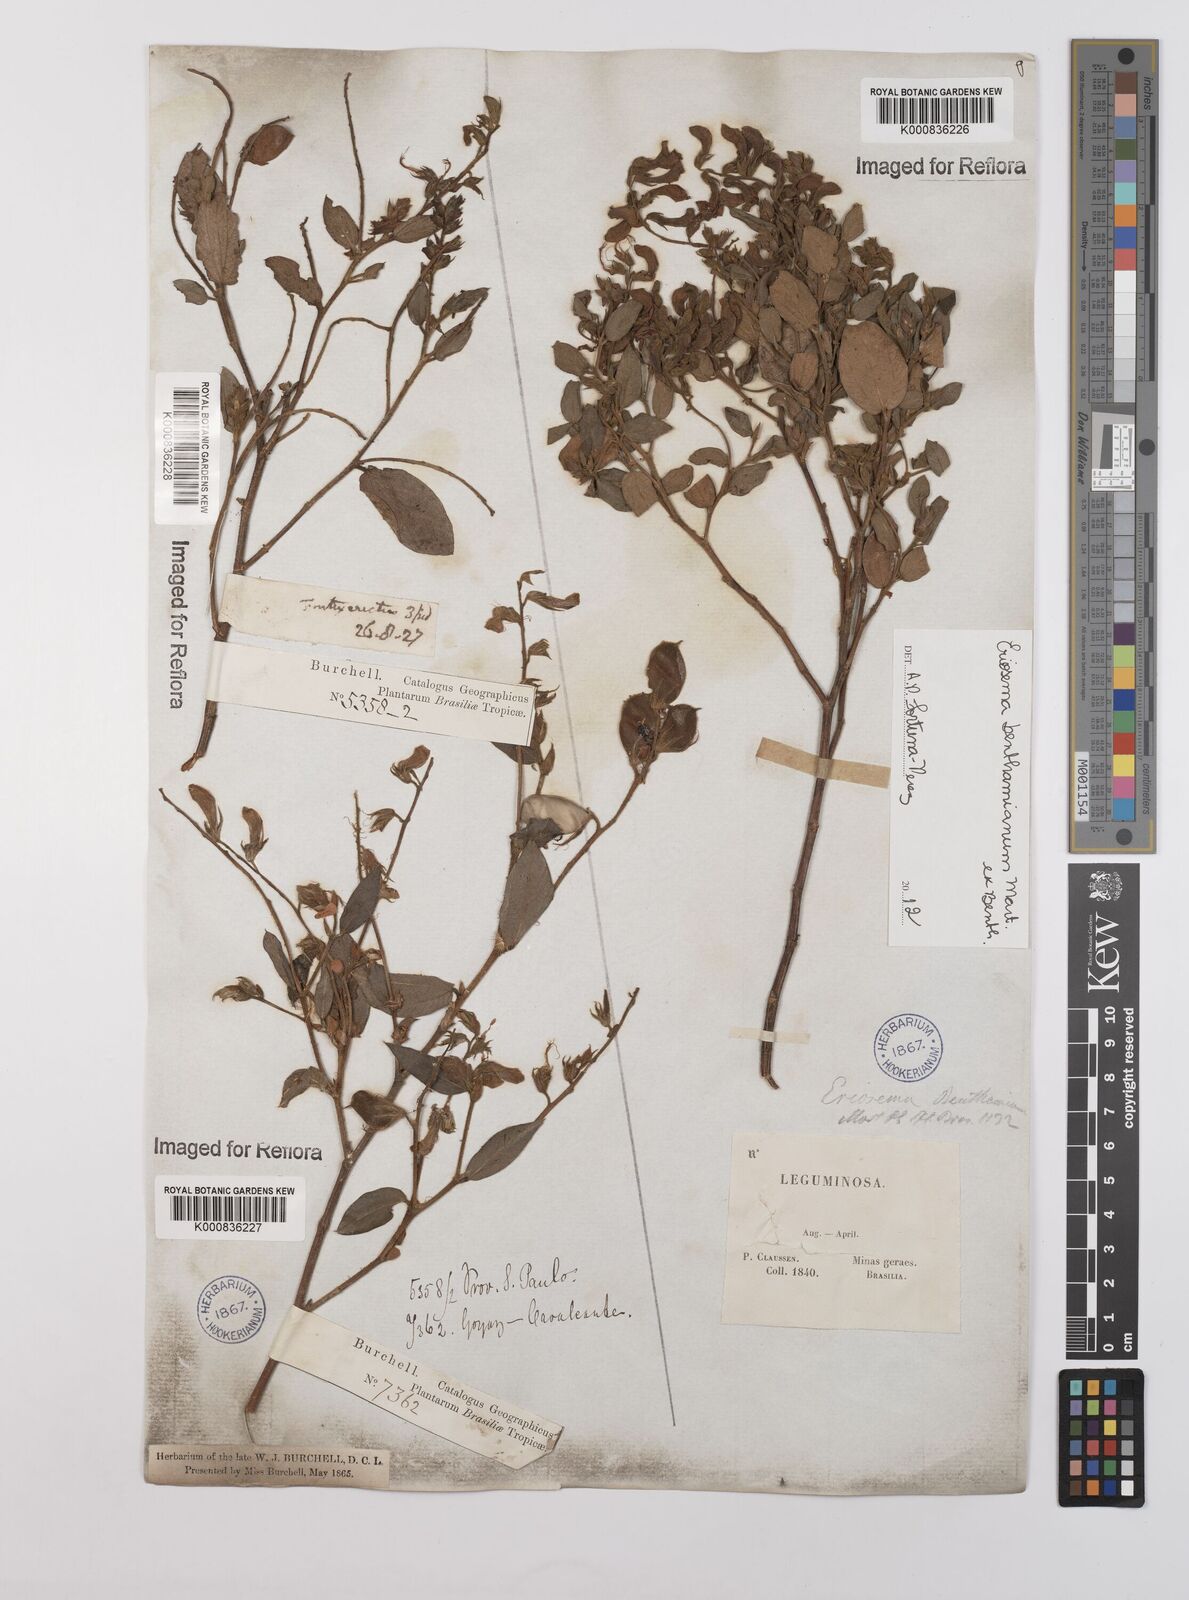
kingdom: Plantae
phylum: Tracheophyta
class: Magnoliopsida
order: Fabales
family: Fabaceae
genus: Eriosema
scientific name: Eriosema benthamianum
